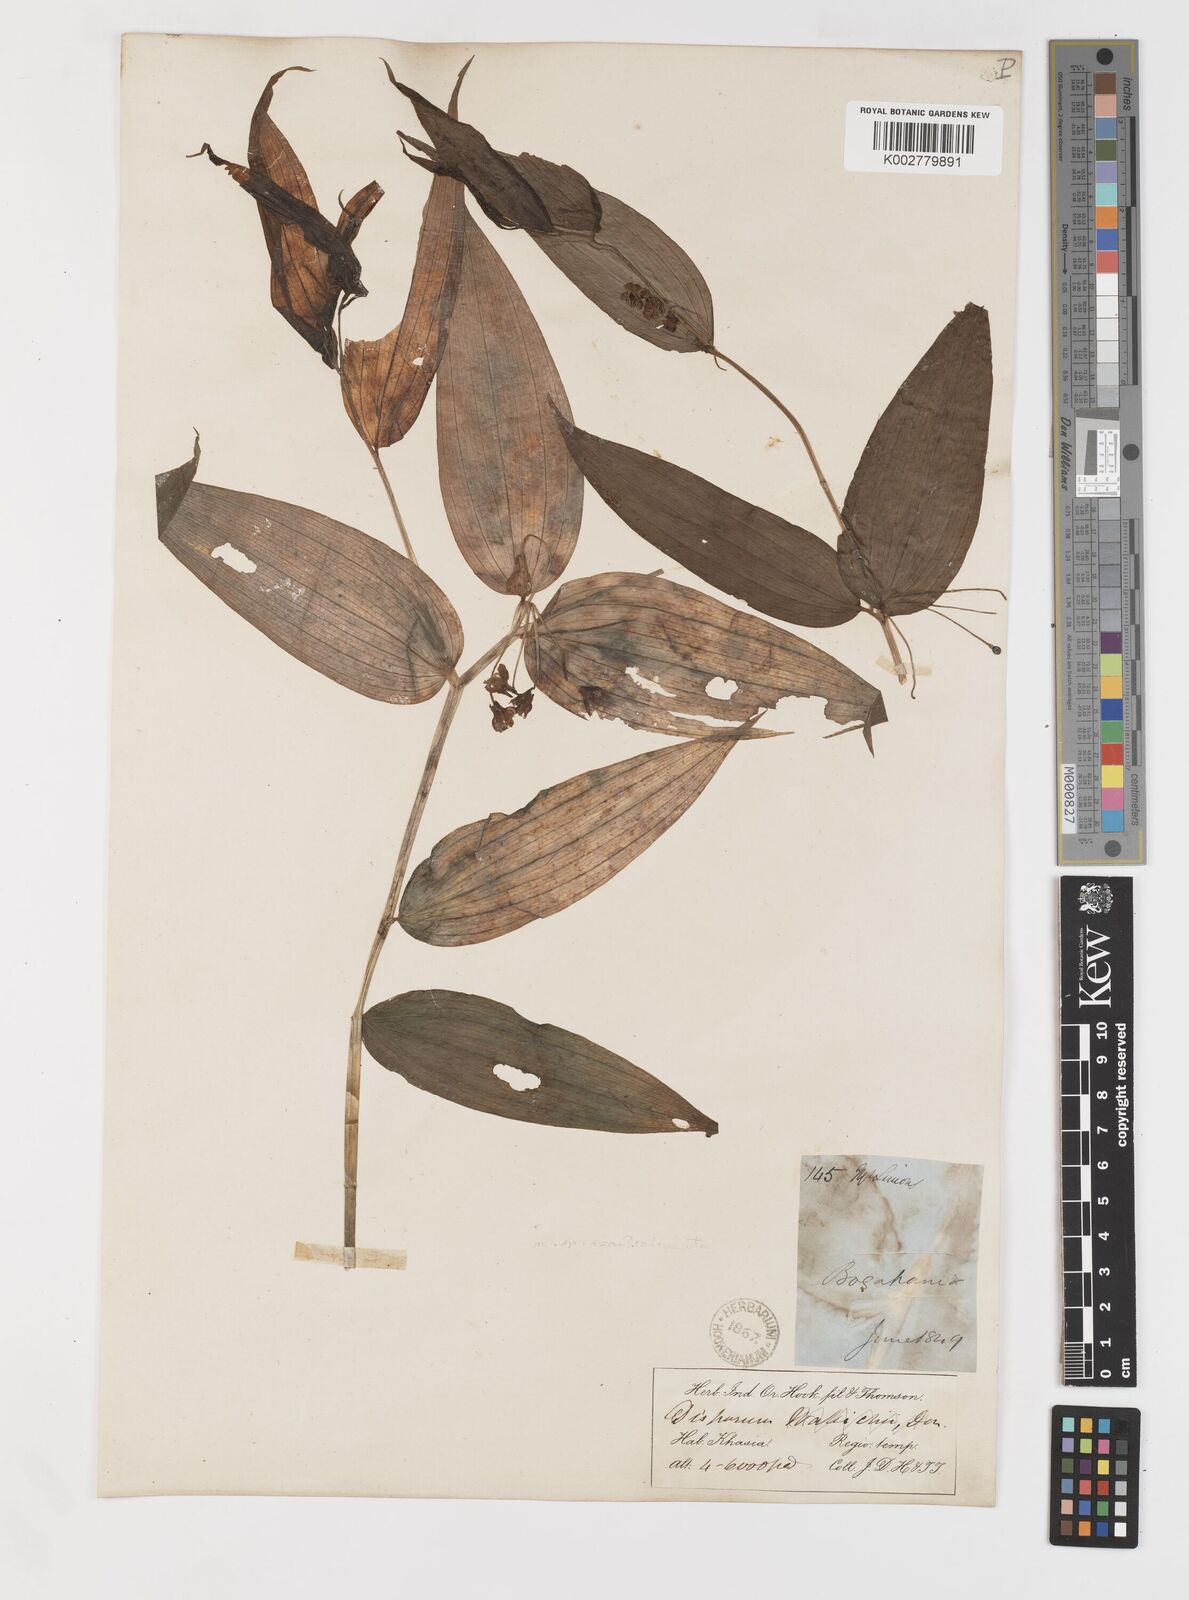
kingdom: Plantae
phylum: Tracheophyta
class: Liliopsida
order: Liliales
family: Colchicaceae
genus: Disporum
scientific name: Disporum
